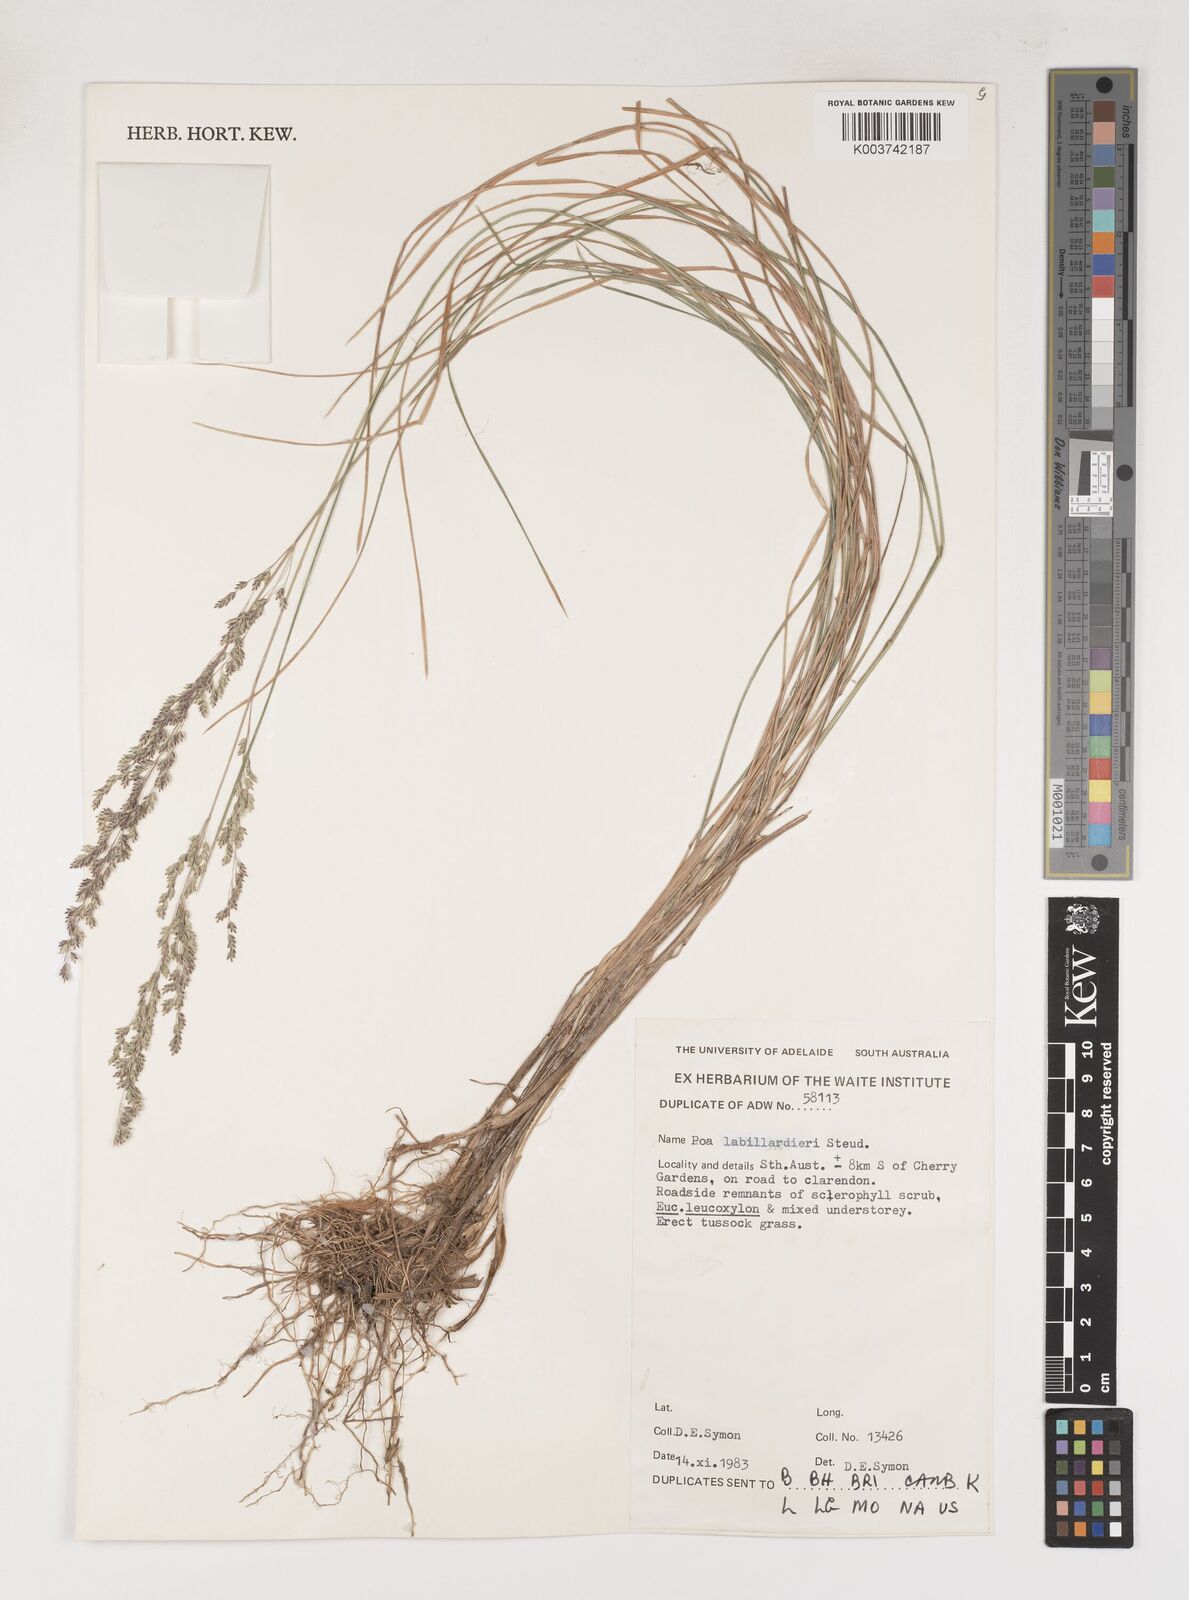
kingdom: Plantae
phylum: Tracheophyta
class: Liliopsida
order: Poales
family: Poaceae
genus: Poa
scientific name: Poa labillardierei
